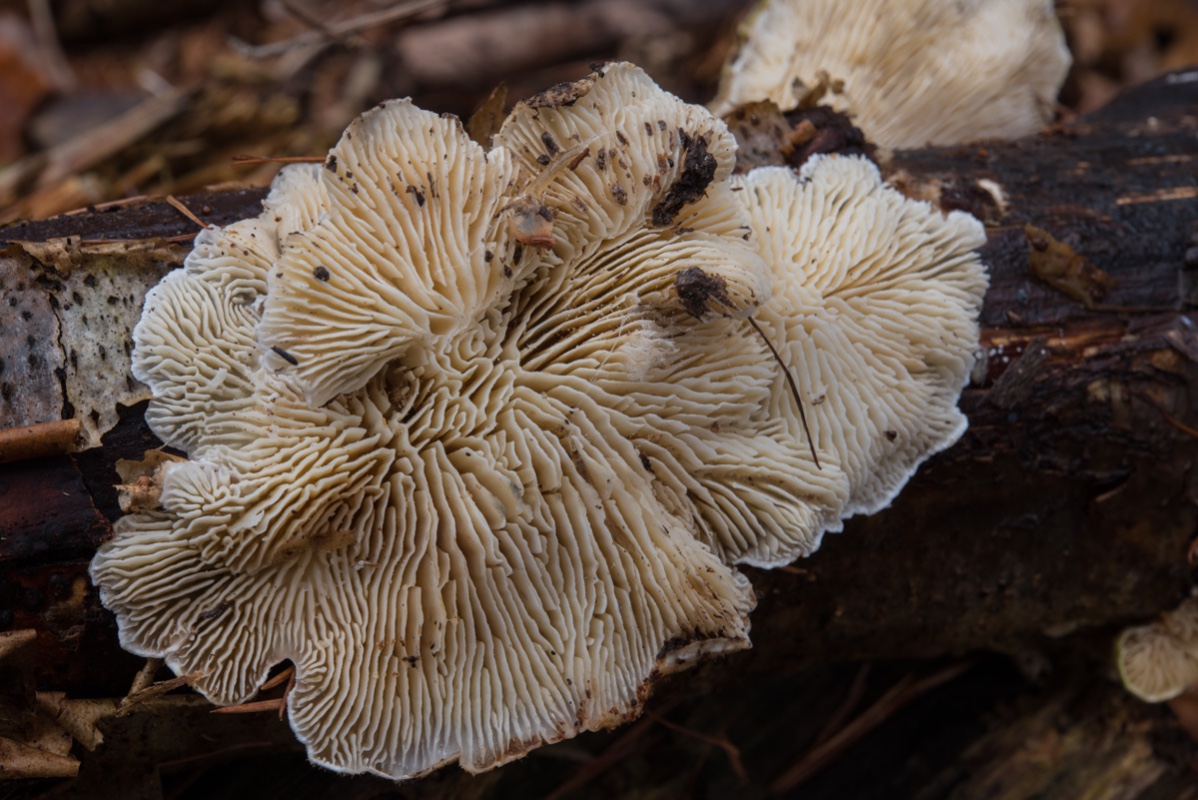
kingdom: Fungi
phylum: Basidiomycota
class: Agaricomycetes
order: Polyporales
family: Polyporaceae
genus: Lenzites
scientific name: Lenzites betulinus
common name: birke-læderporesvamp
